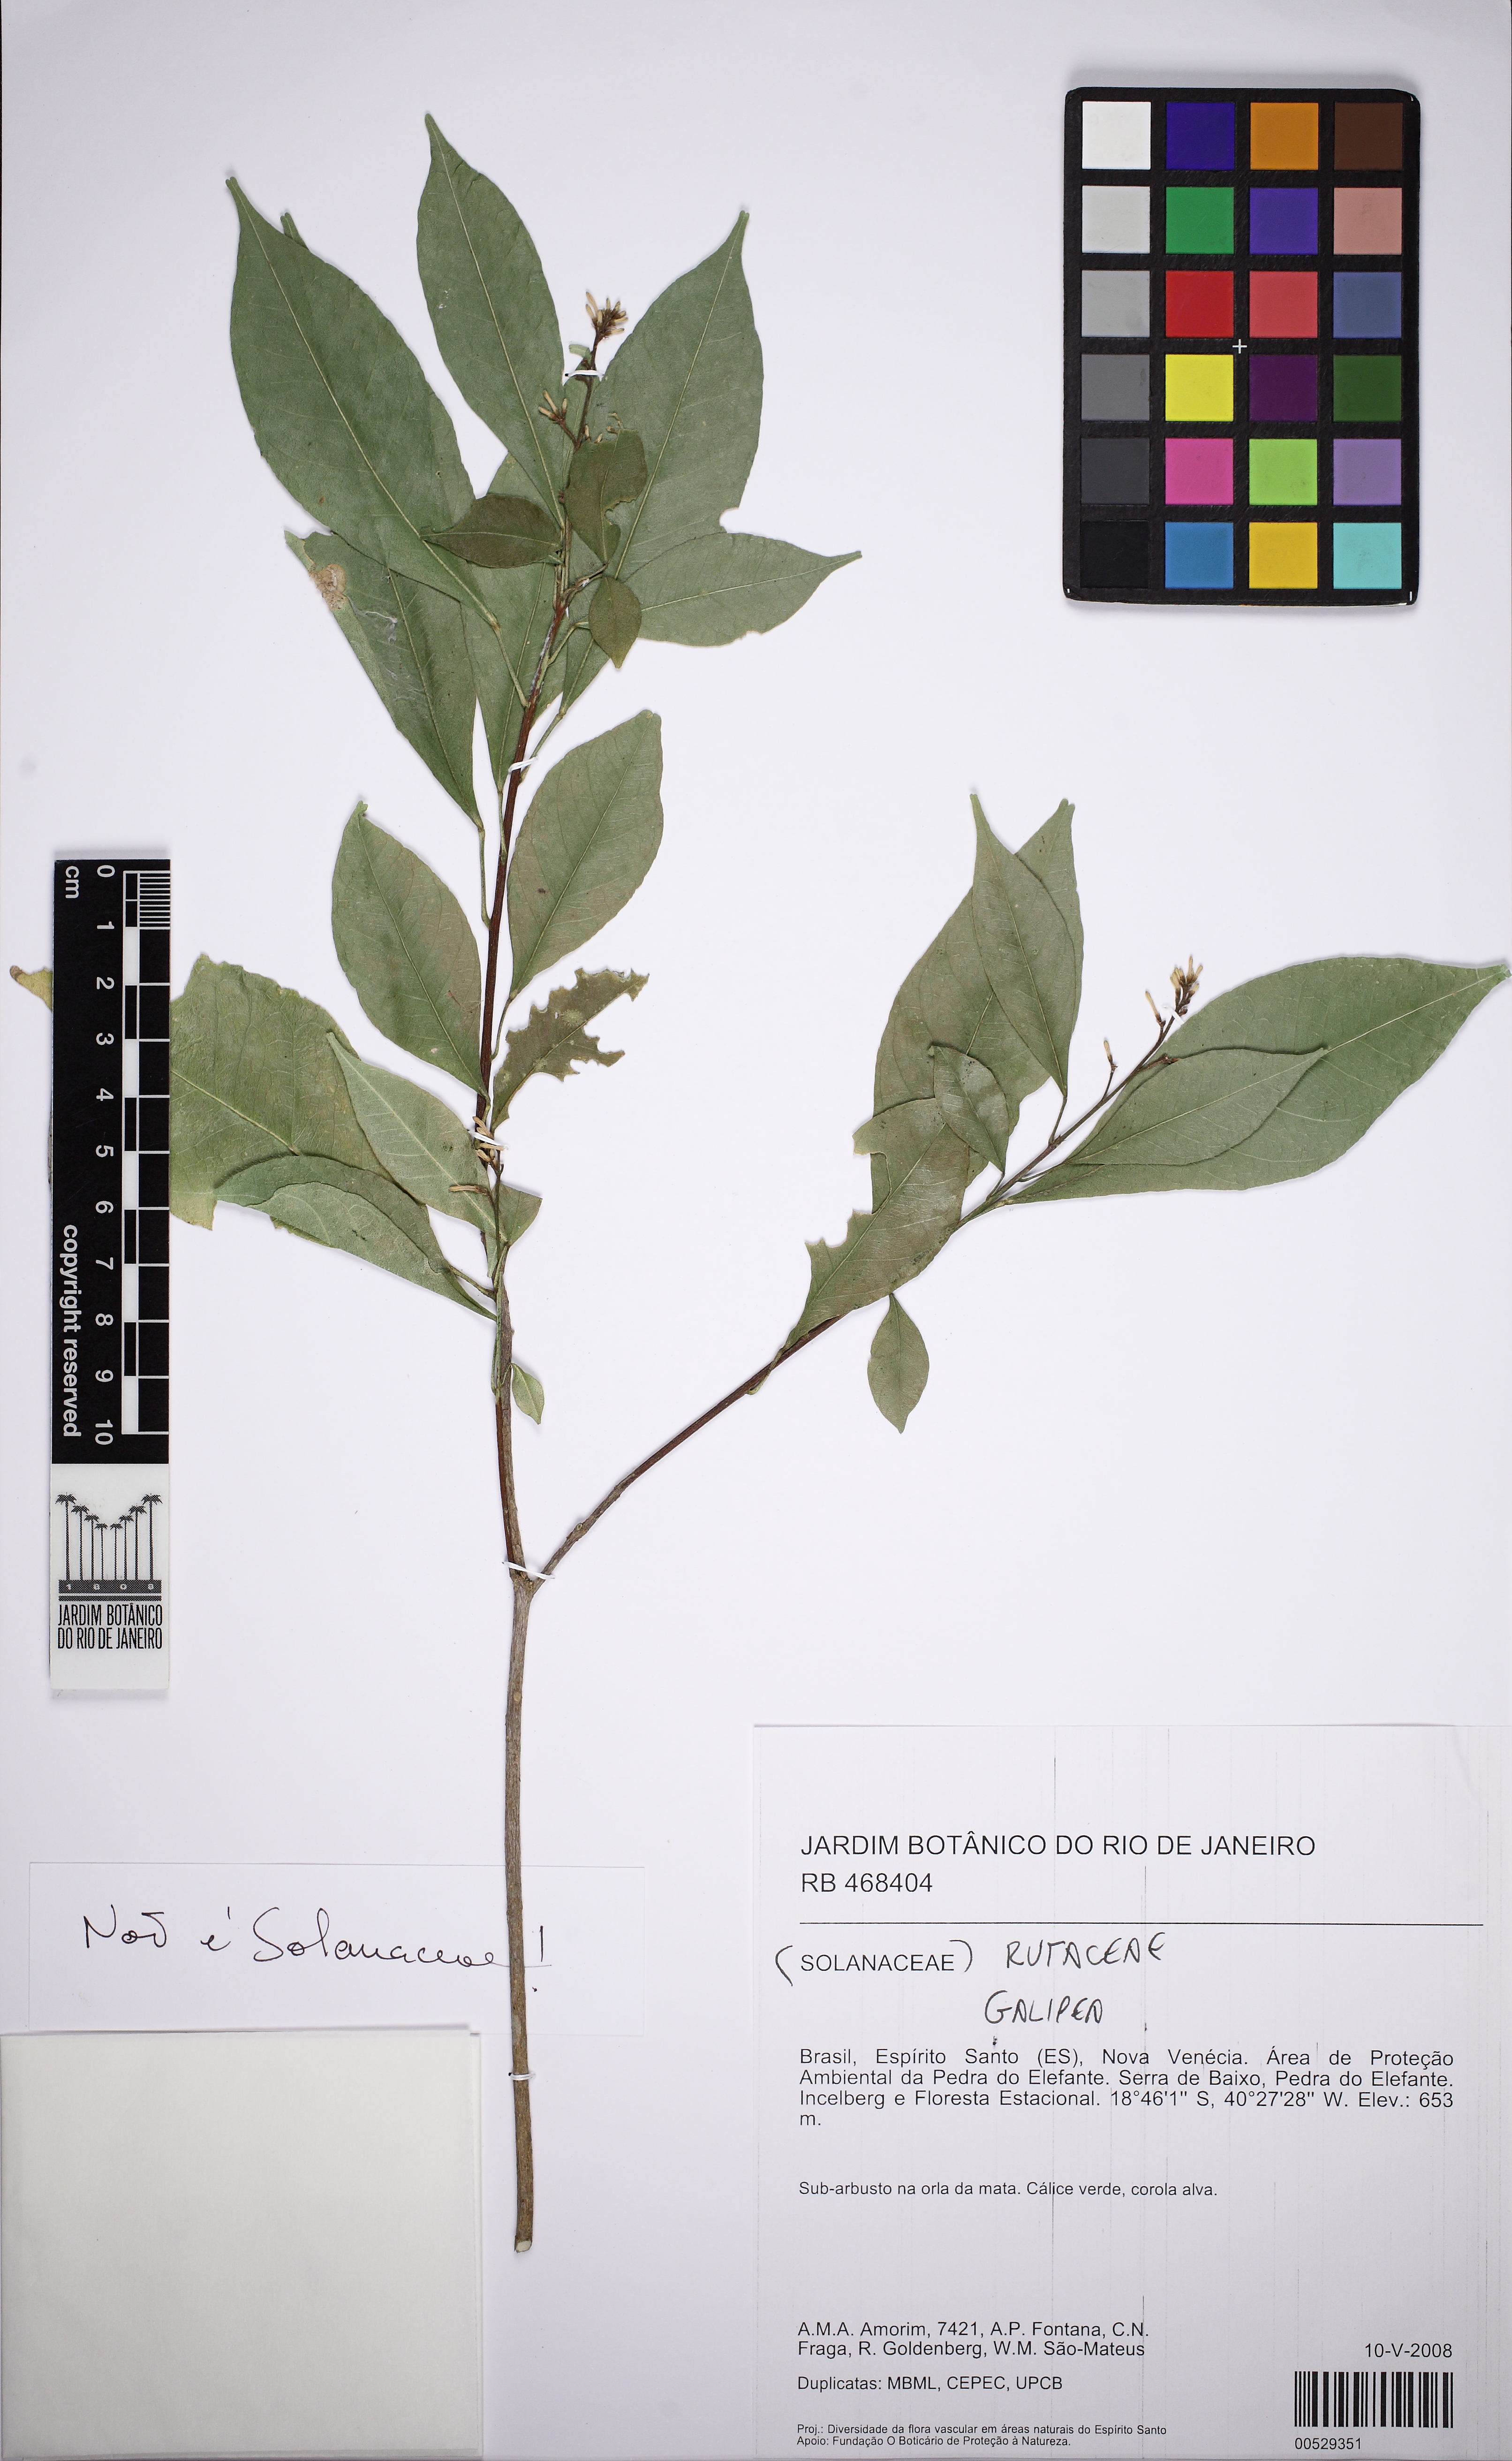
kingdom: Plantae
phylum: Tracheophyta
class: Magnoliopsida
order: Sapindales
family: Rutaceae
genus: Galipea
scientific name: Galipea
